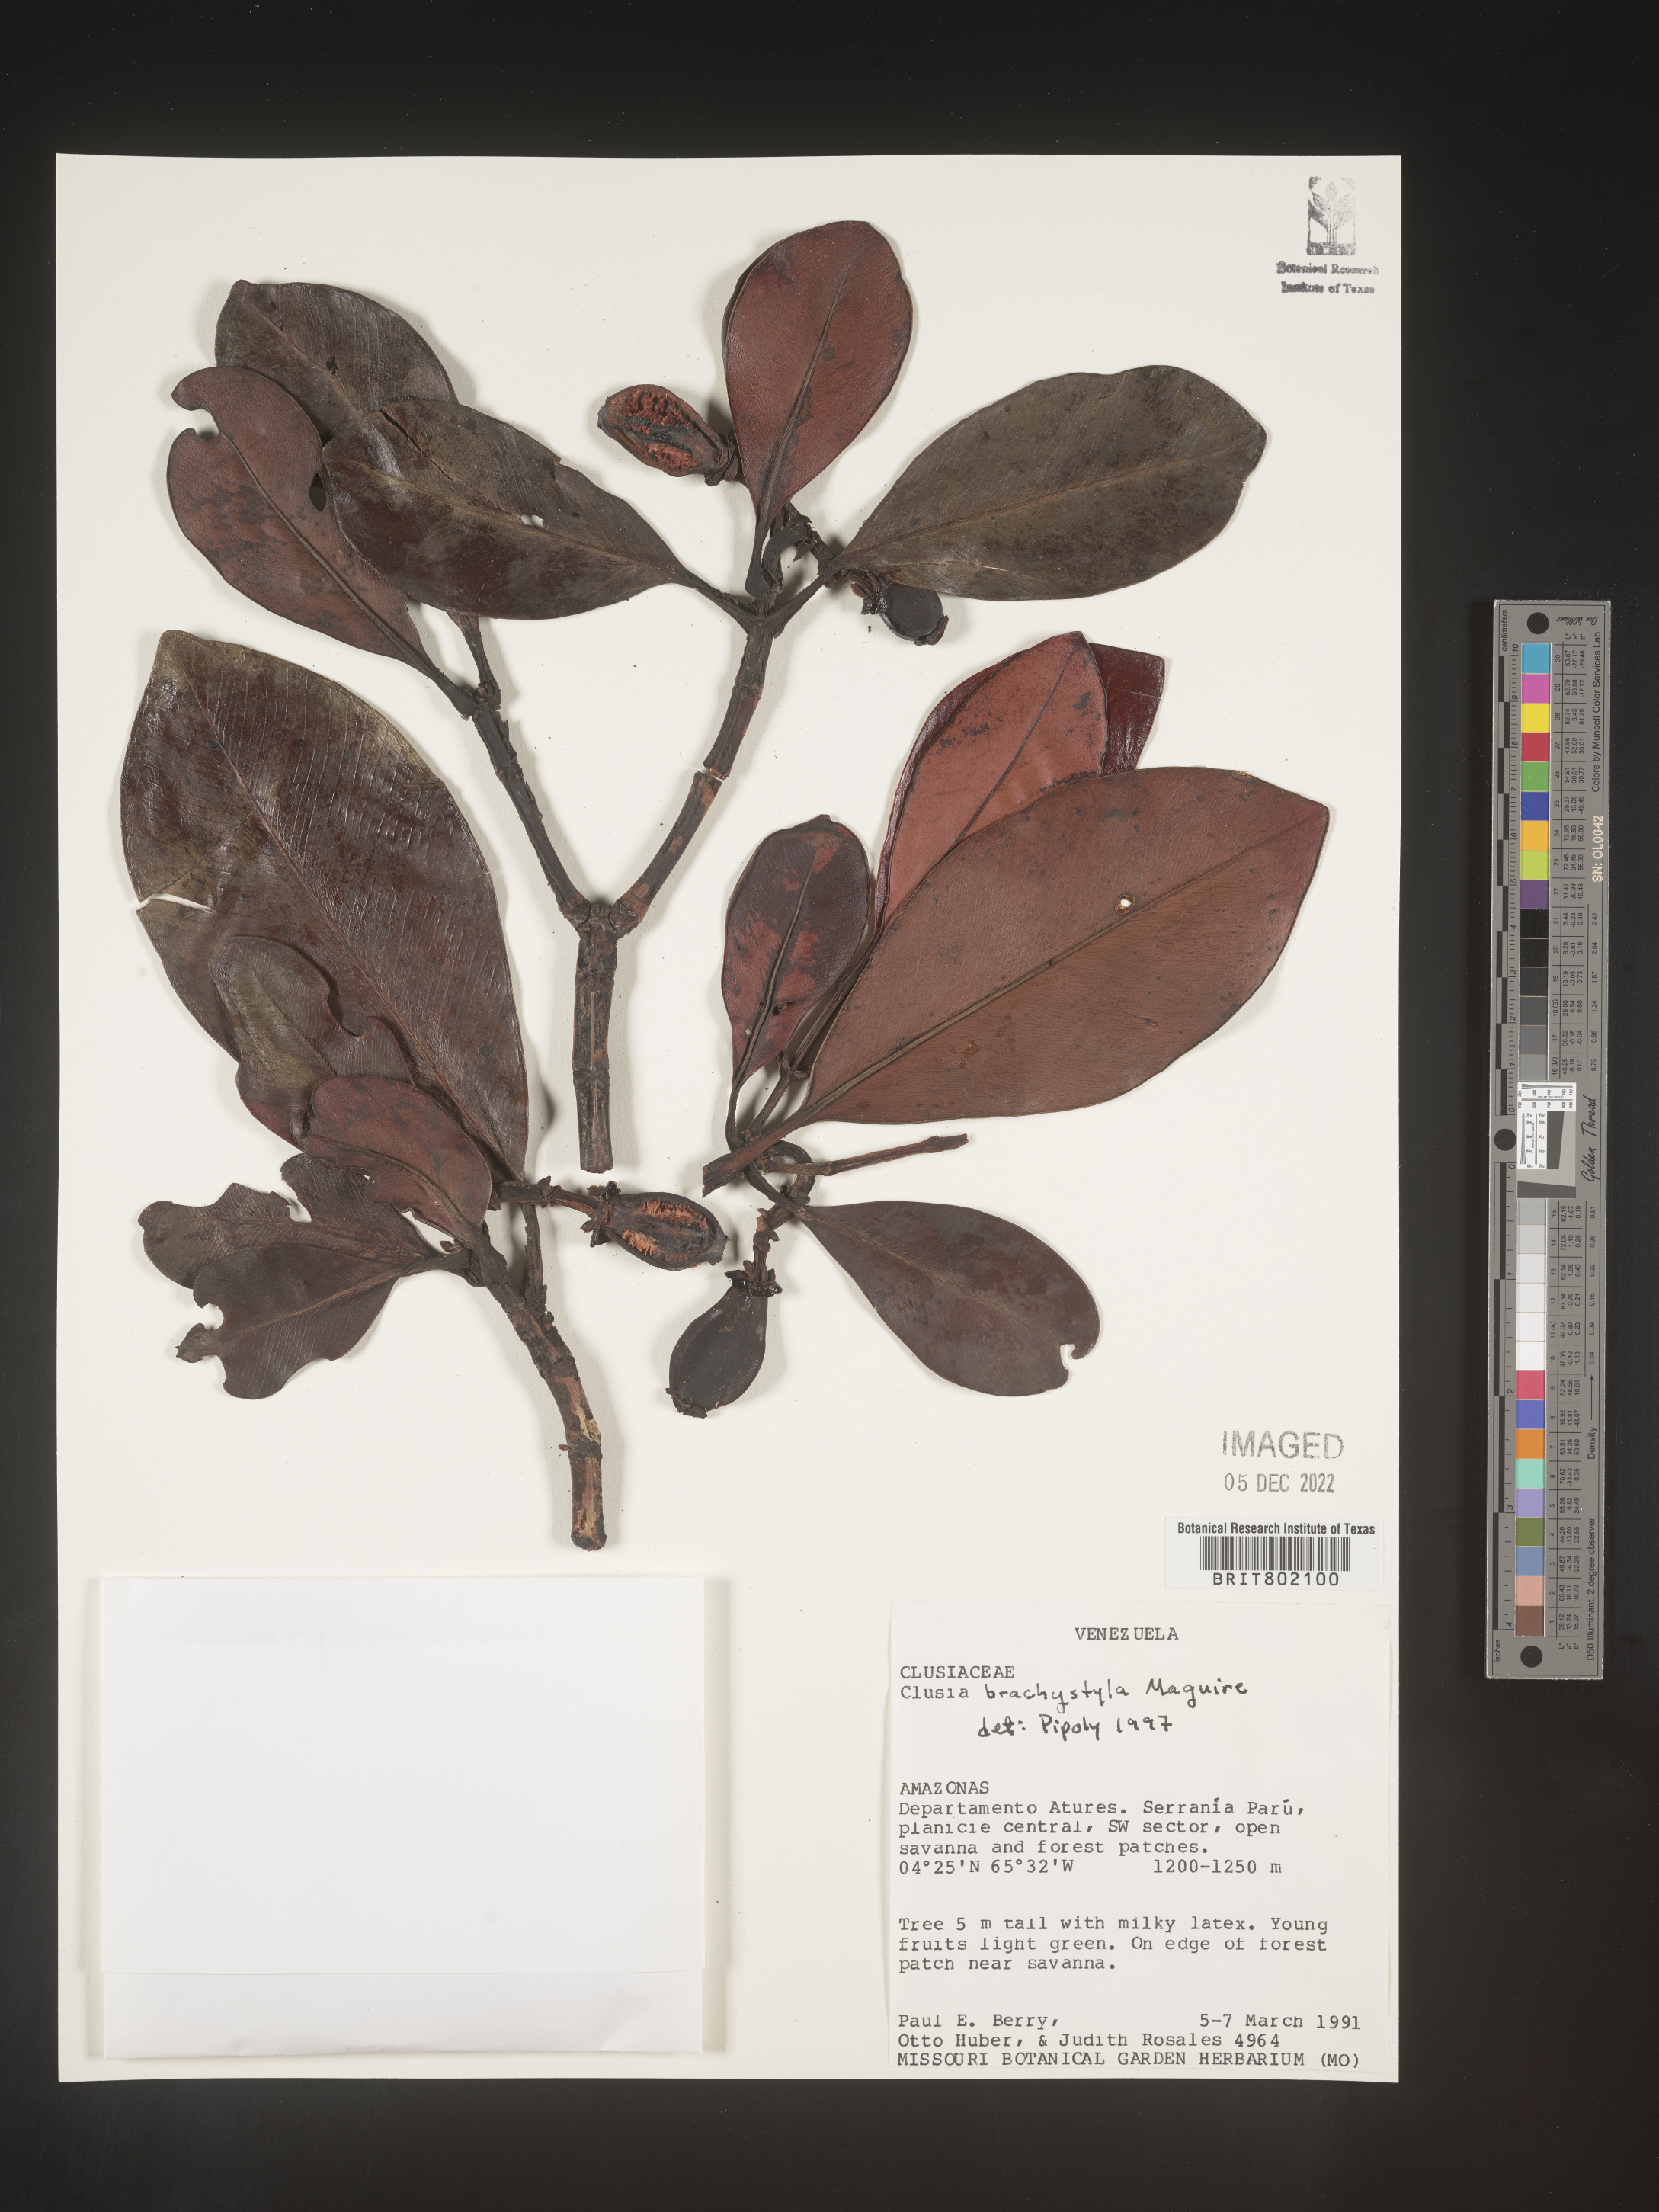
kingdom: Plantae
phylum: Tracheophyta
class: Magnoliopsida
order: Malpighiales
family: Clusiaceae
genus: Clusia
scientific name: Clusia brachystyla
